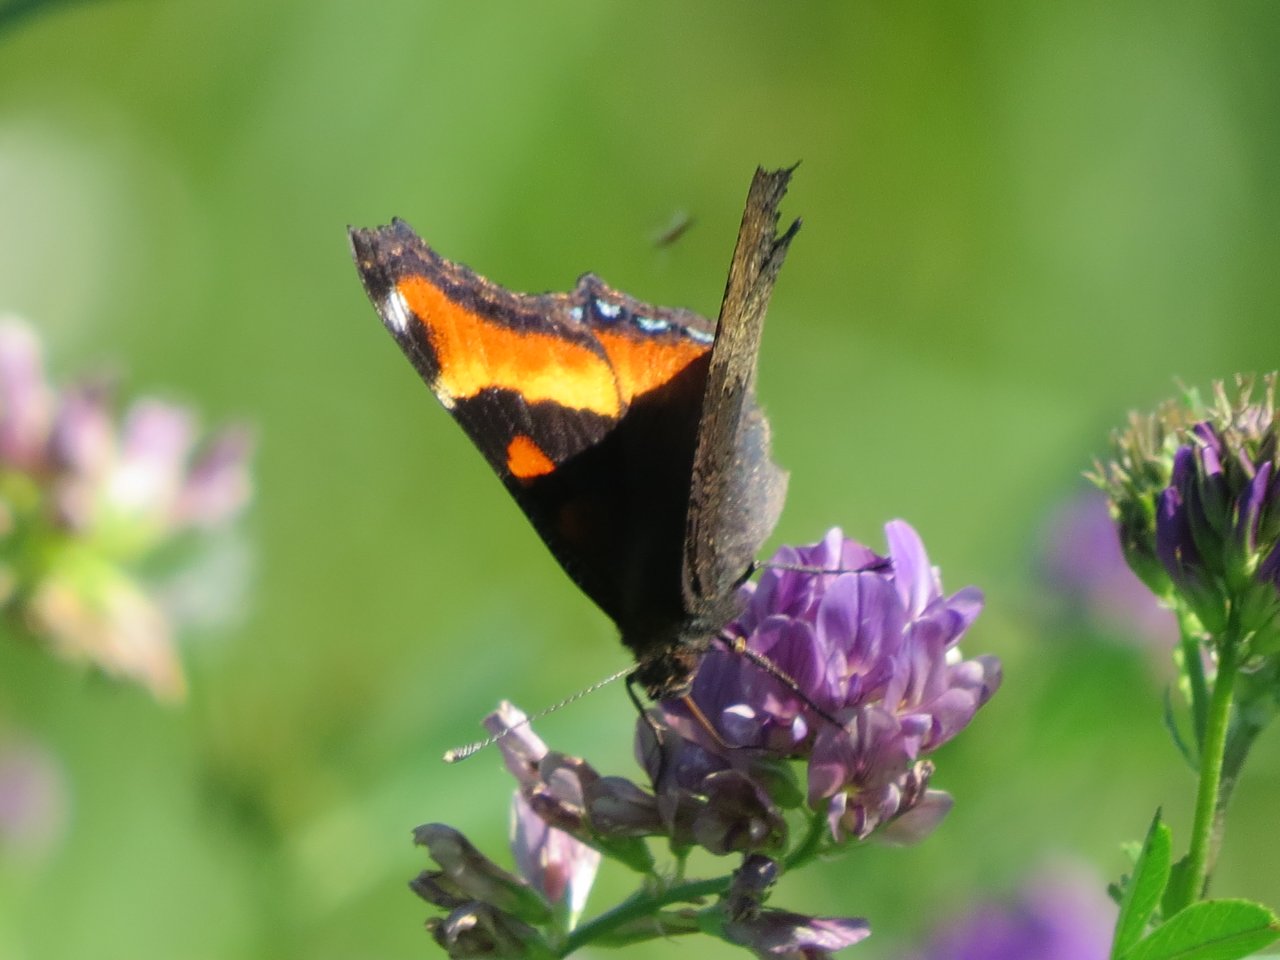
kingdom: Animalia
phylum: Arthropoda
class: Insecta
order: Lepidoptera
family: Nymphalidae
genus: Aglais
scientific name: Aglais milberti
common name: Milbert's Tortoiseshell
